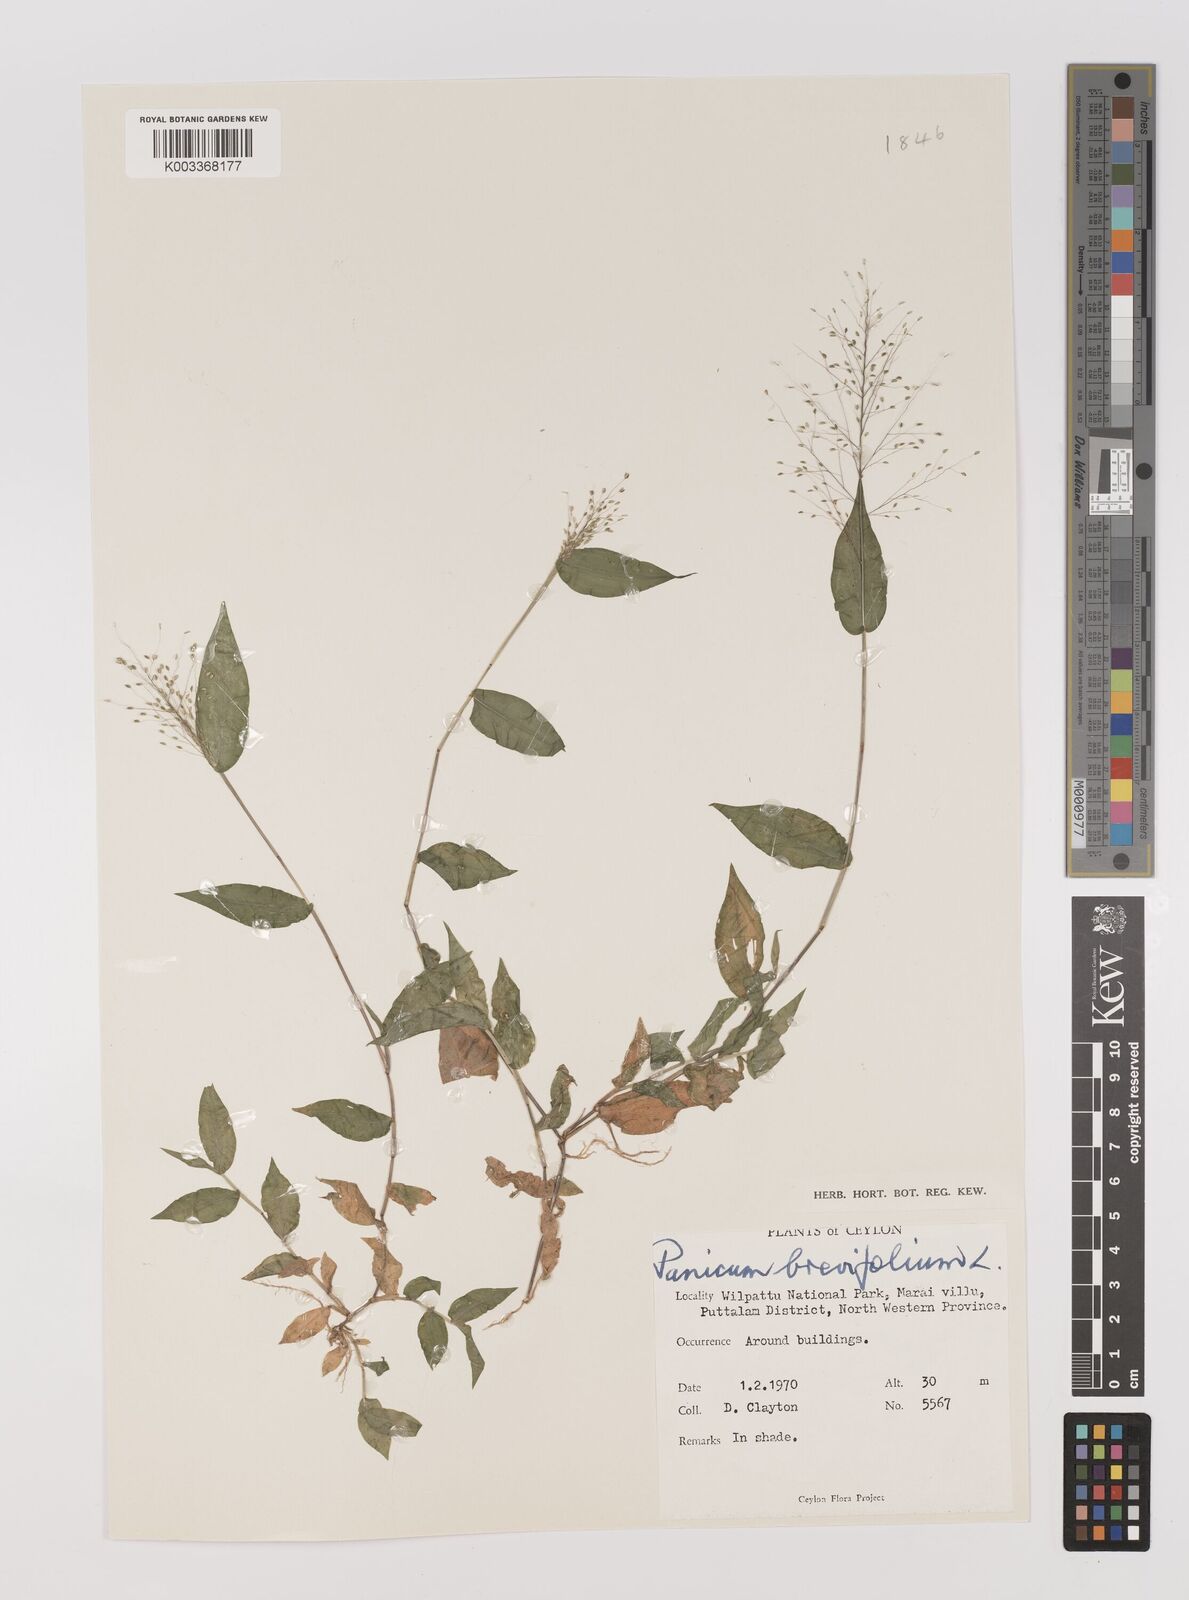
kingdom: Plantae
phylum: Tracheophyta
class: Liliopsida
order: Poales
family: Poaceae
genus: Panicum
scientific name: Panicum brevifolium
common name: Shortleaf panic grass
